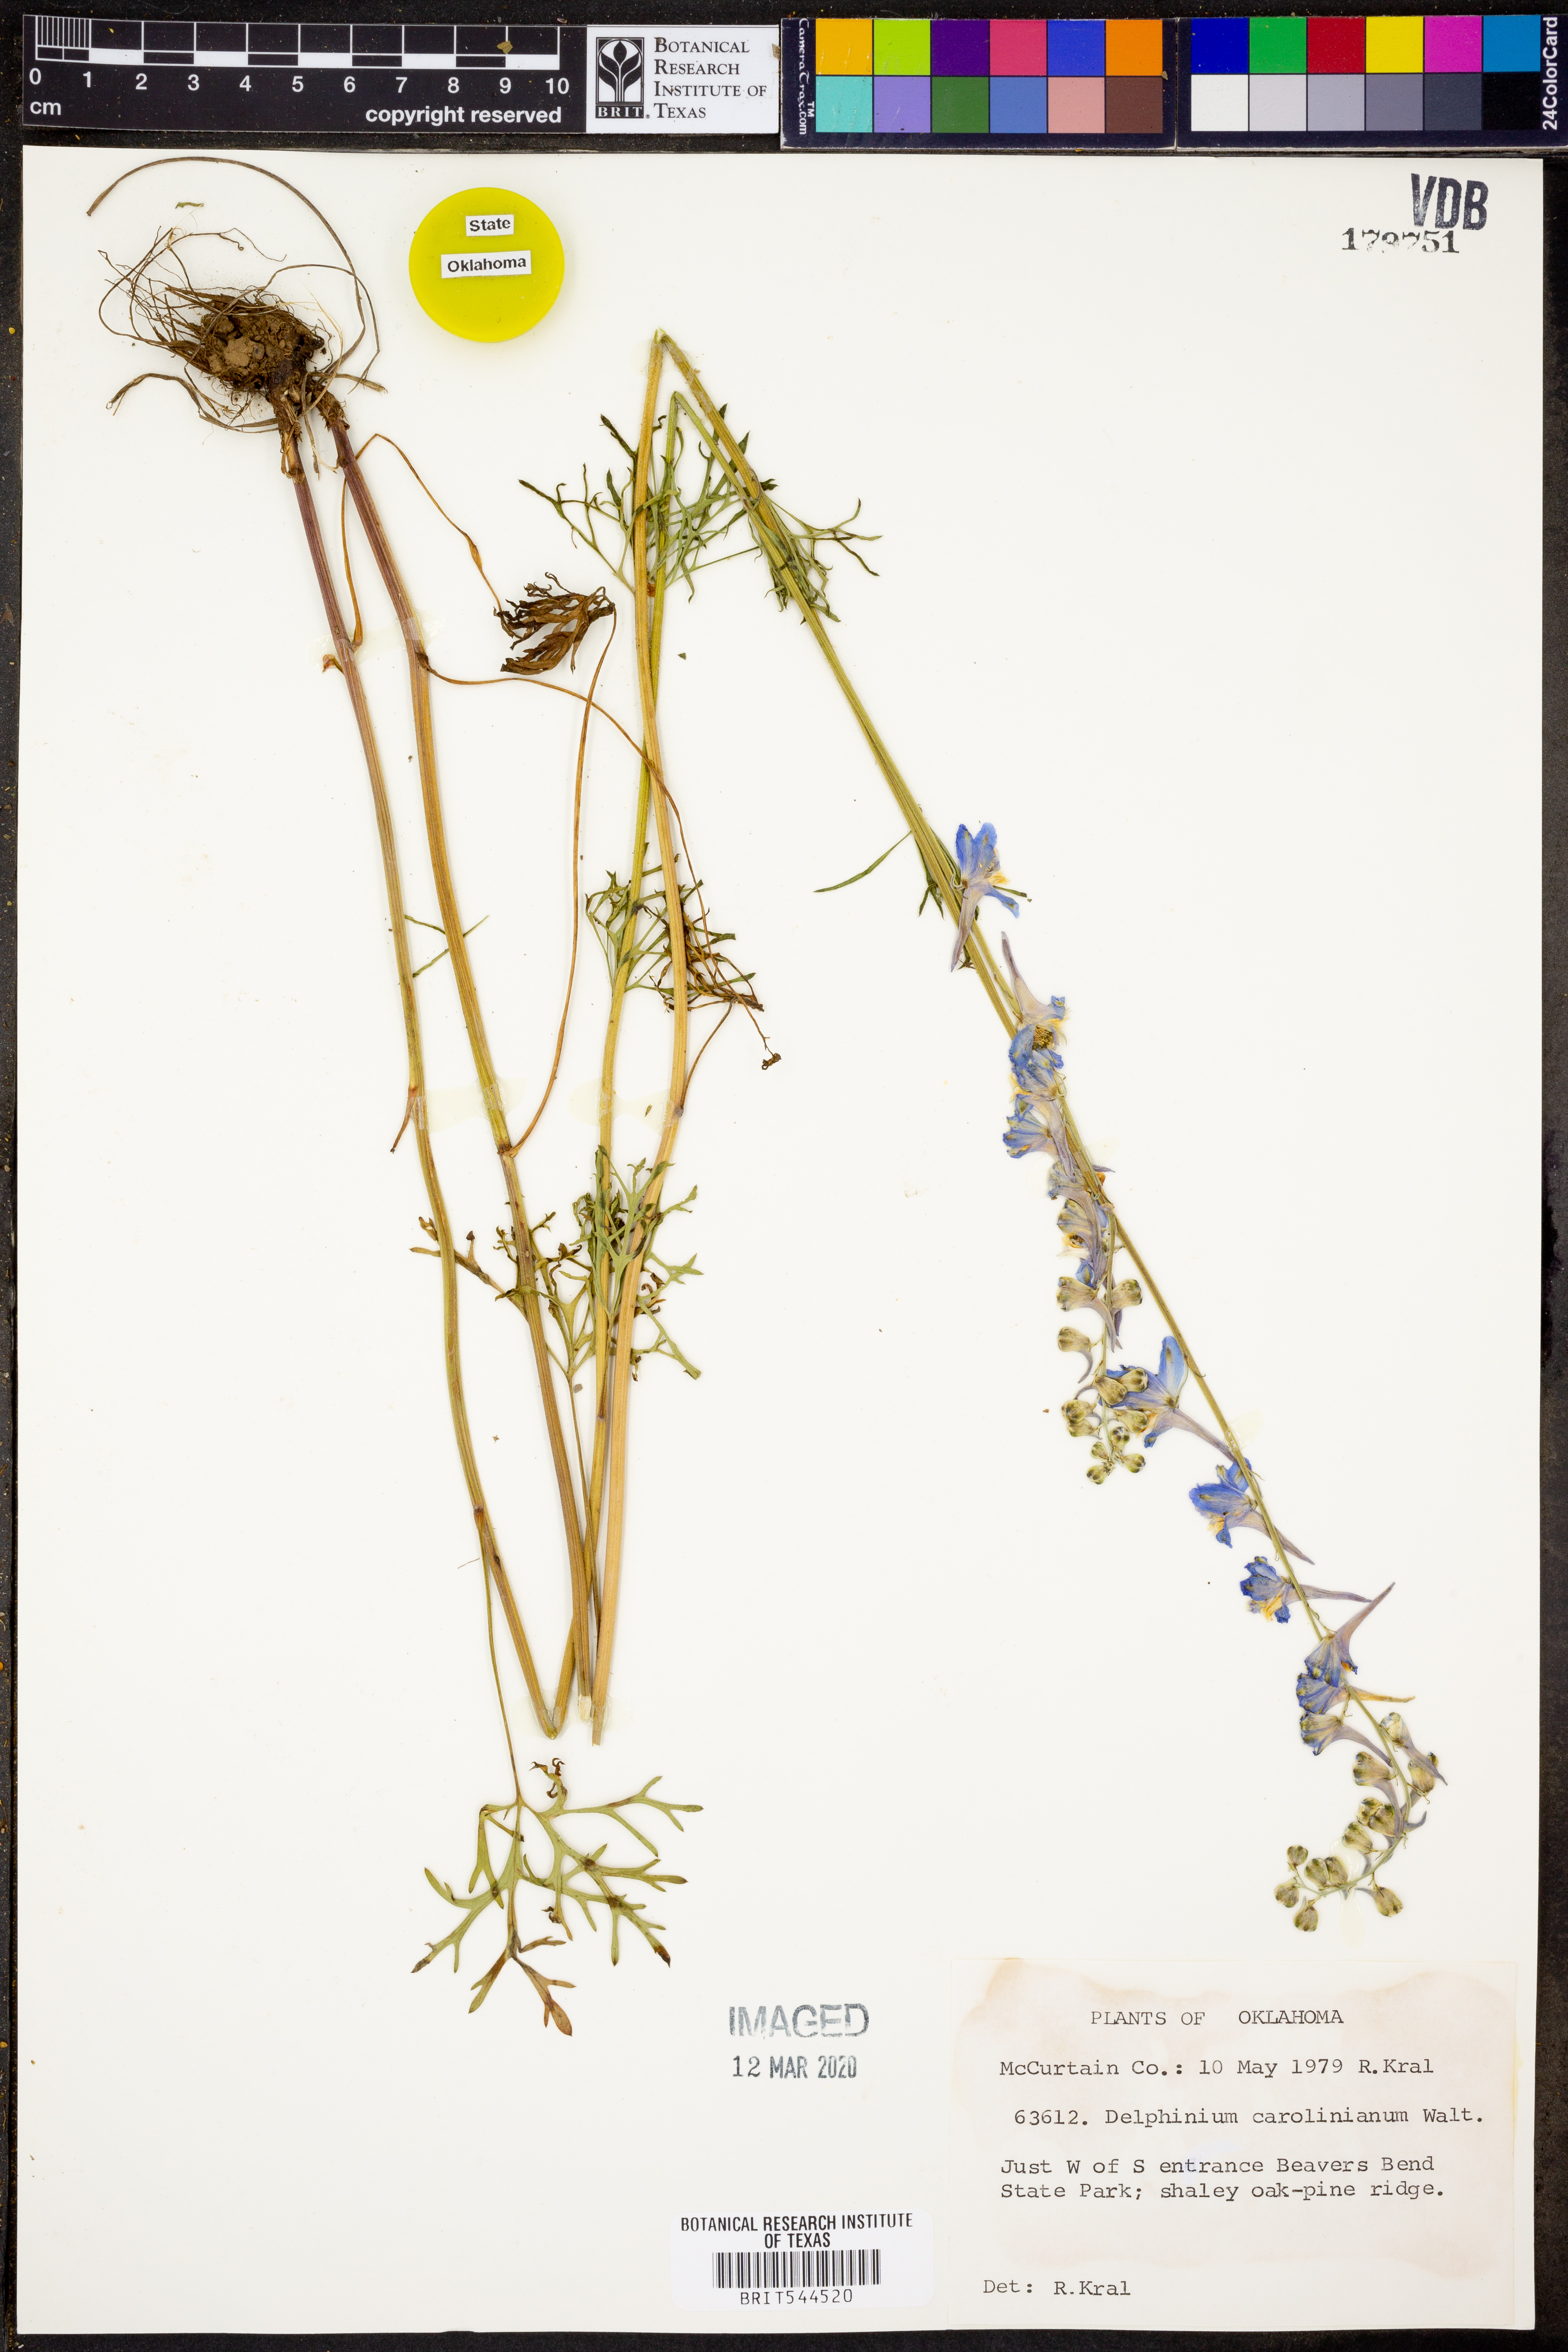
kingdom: Plantae
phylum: Tracheophyta
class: Magnoliopsida
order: Ranunculales
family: Ranunculaceae
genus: Delphinium
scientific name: Delphinium carolinianum
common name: Carolina larkspur
